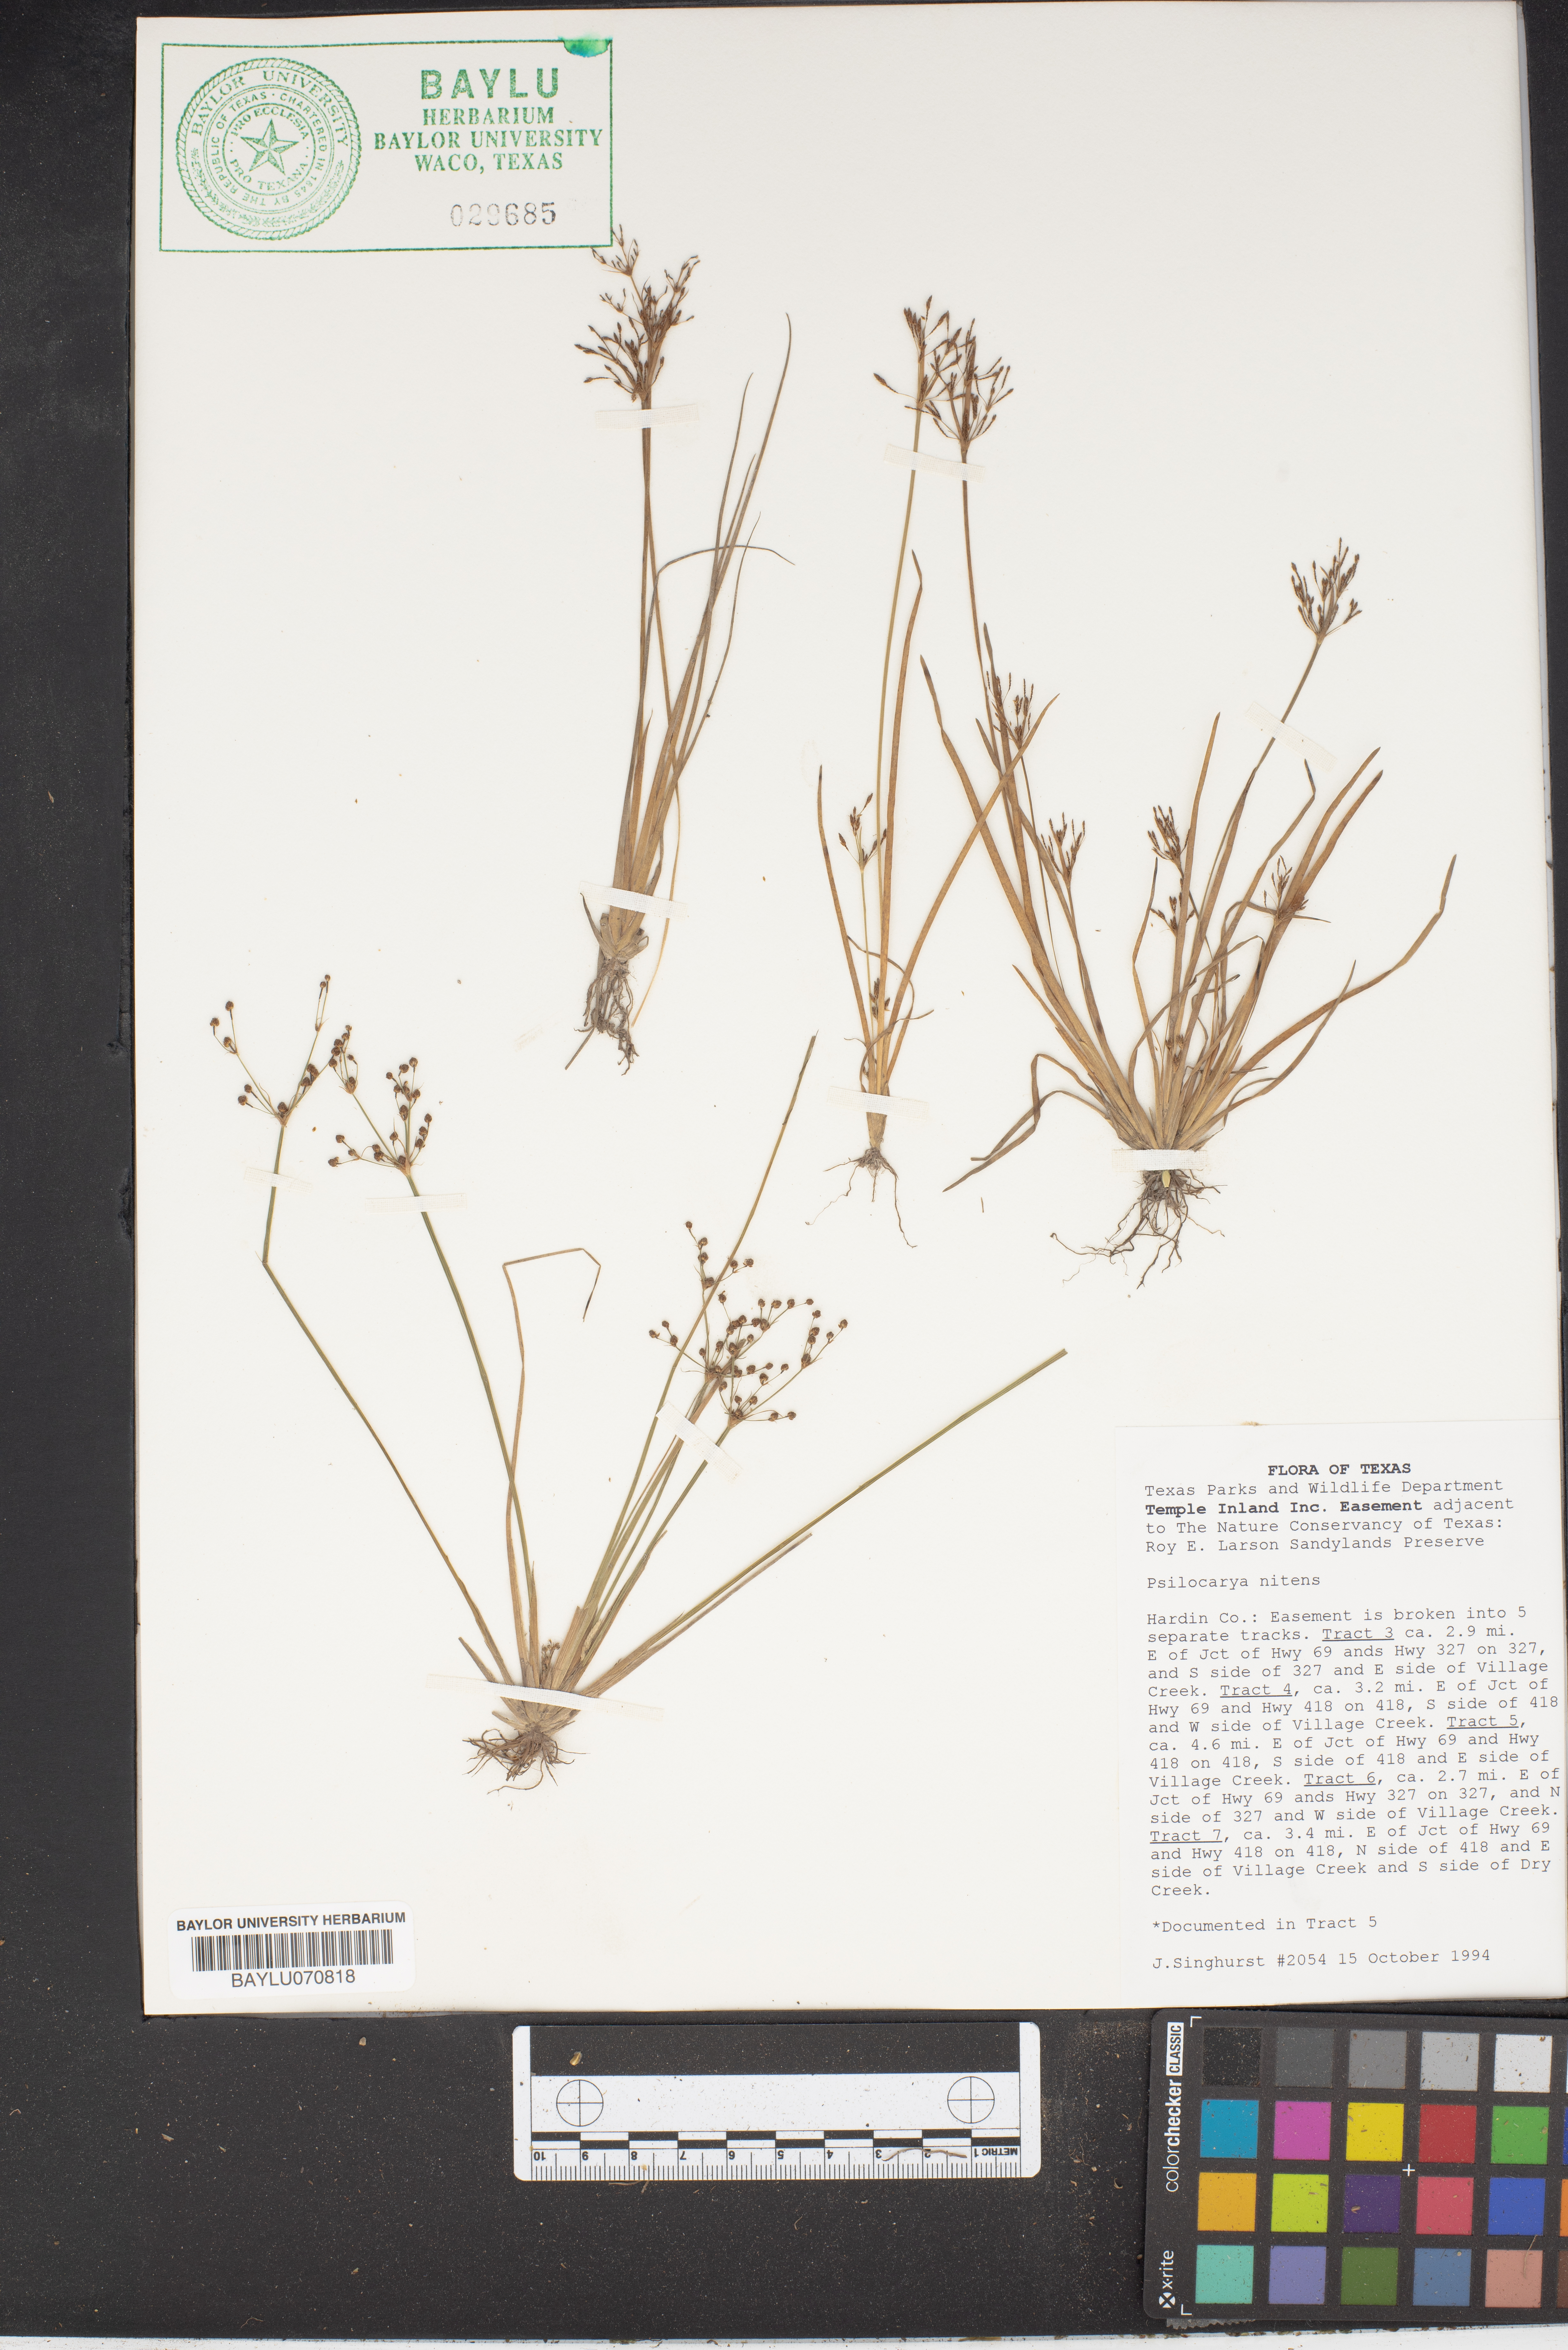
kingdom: Plantae
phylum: Tracheophyta
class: Liliopsida
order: Poales
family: Cyperaceae
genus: Rhynchospora
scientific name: Rhynchospora nitens
